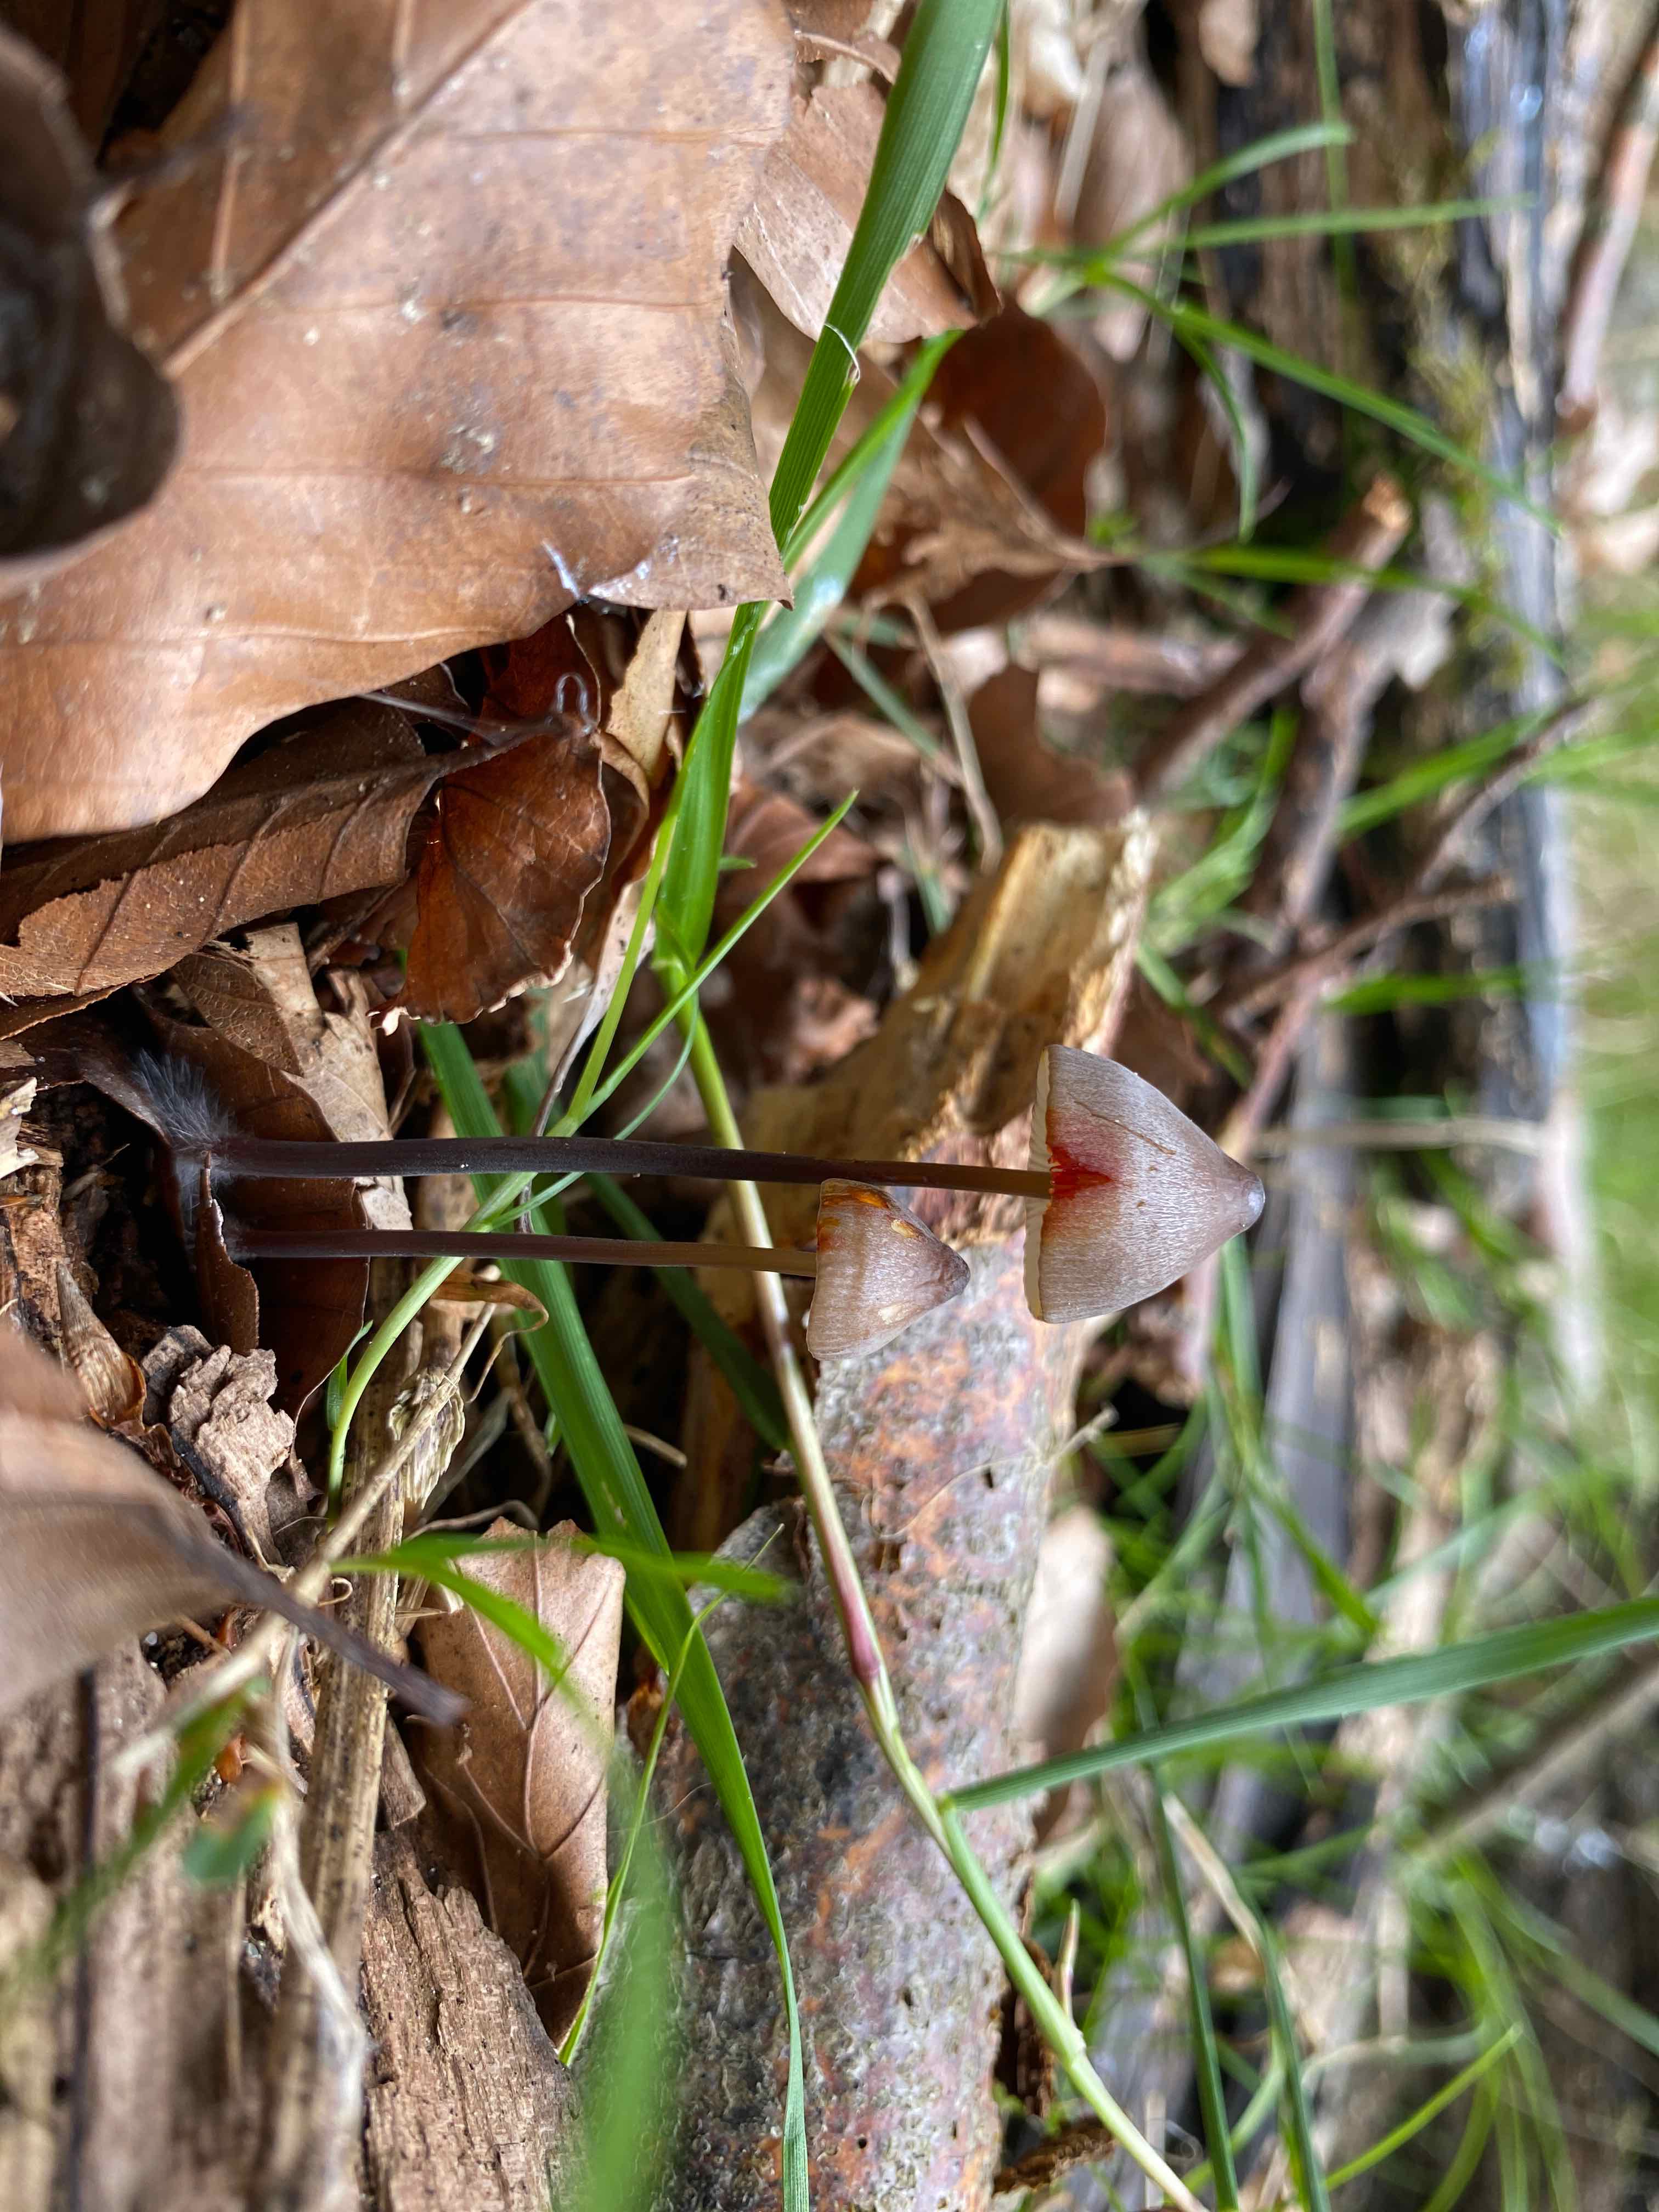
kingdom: Fungi
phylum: Basidiomycota
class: Agaricomycetes
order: Agaricales
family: Mycenaceae
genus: Mycena
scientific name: Mycena crocata
